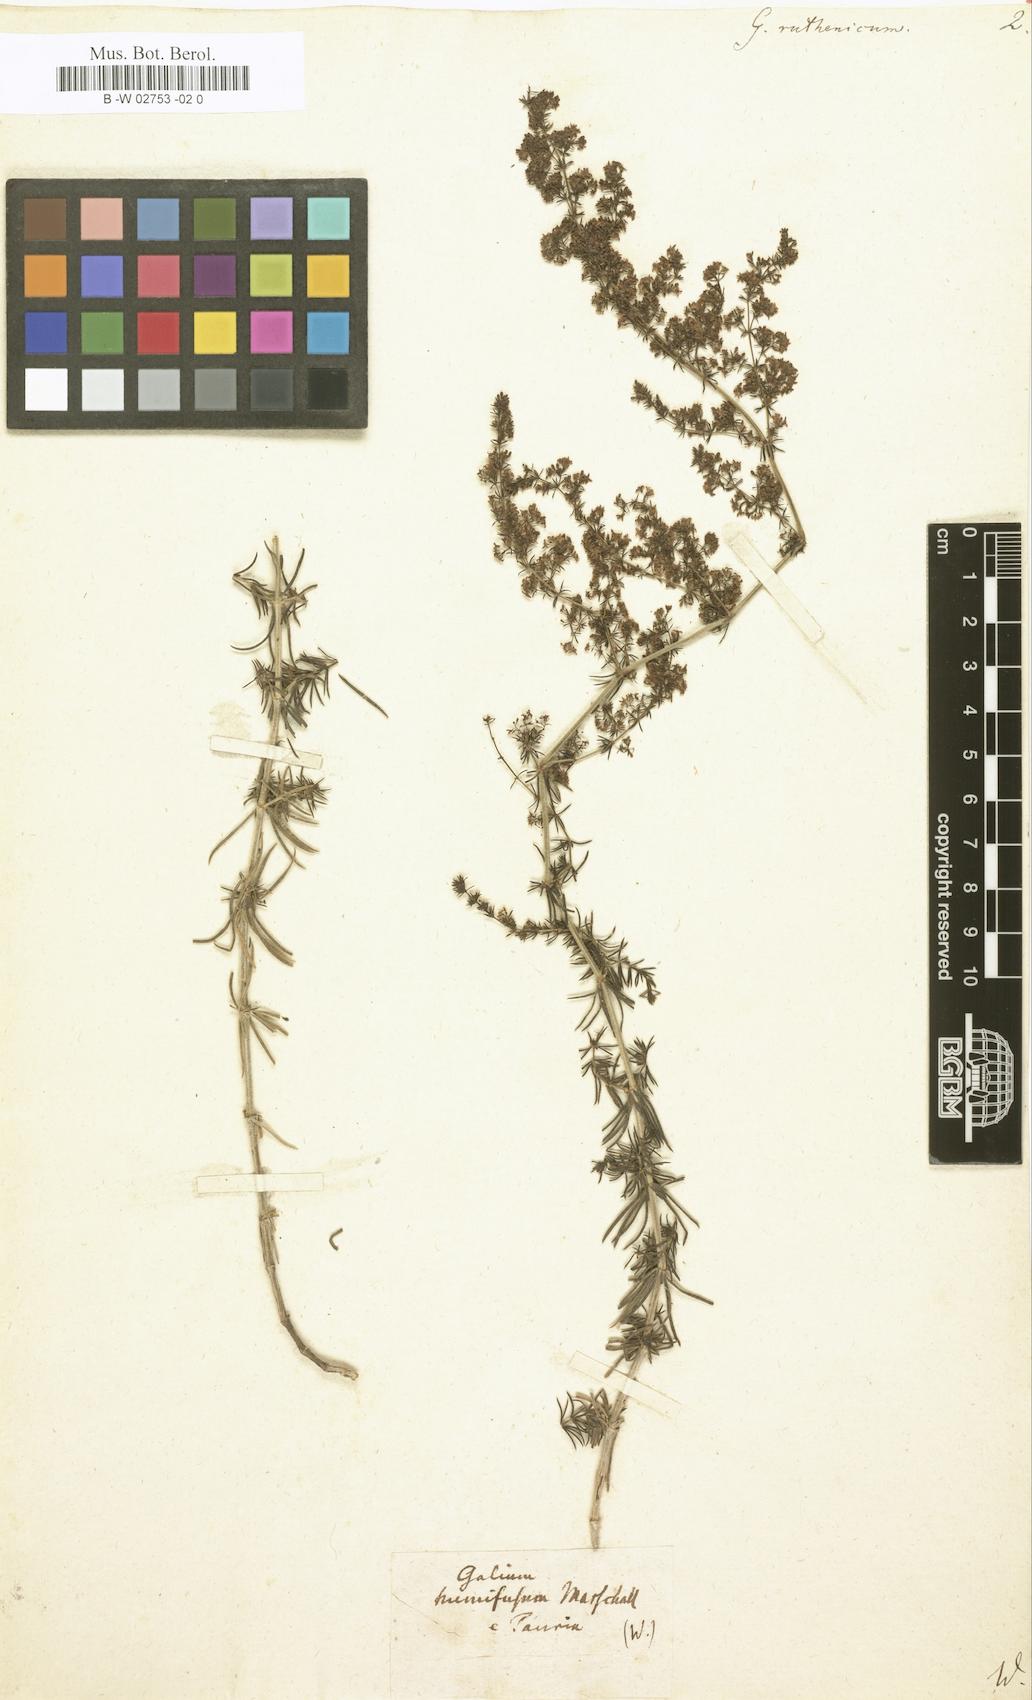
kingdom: Plantae
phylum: Tracheophyta
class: Magnoliopsida
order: Gentianales
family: Rubiaceae
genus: Galium
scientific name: Galium verum
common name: Lady's bedstraw
